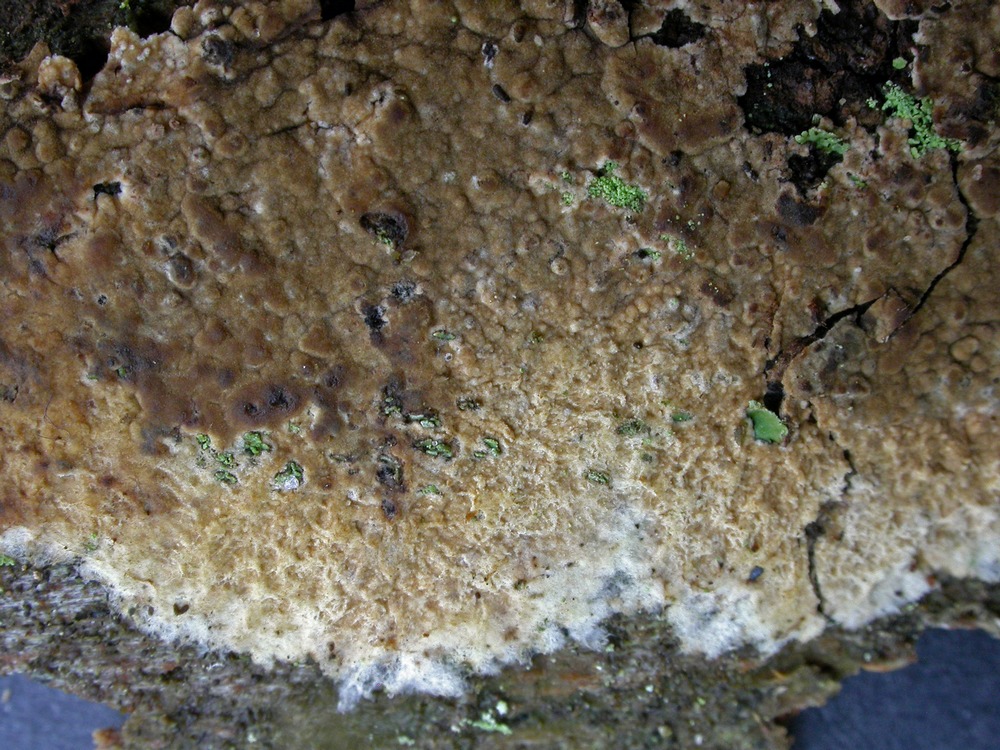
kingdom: Fungi
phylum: Basidiomycota
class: Agaricomycetes
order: Boletales
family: Coniophoraceae
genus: Penttilamyces
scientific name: Penttilamyces olivascens
